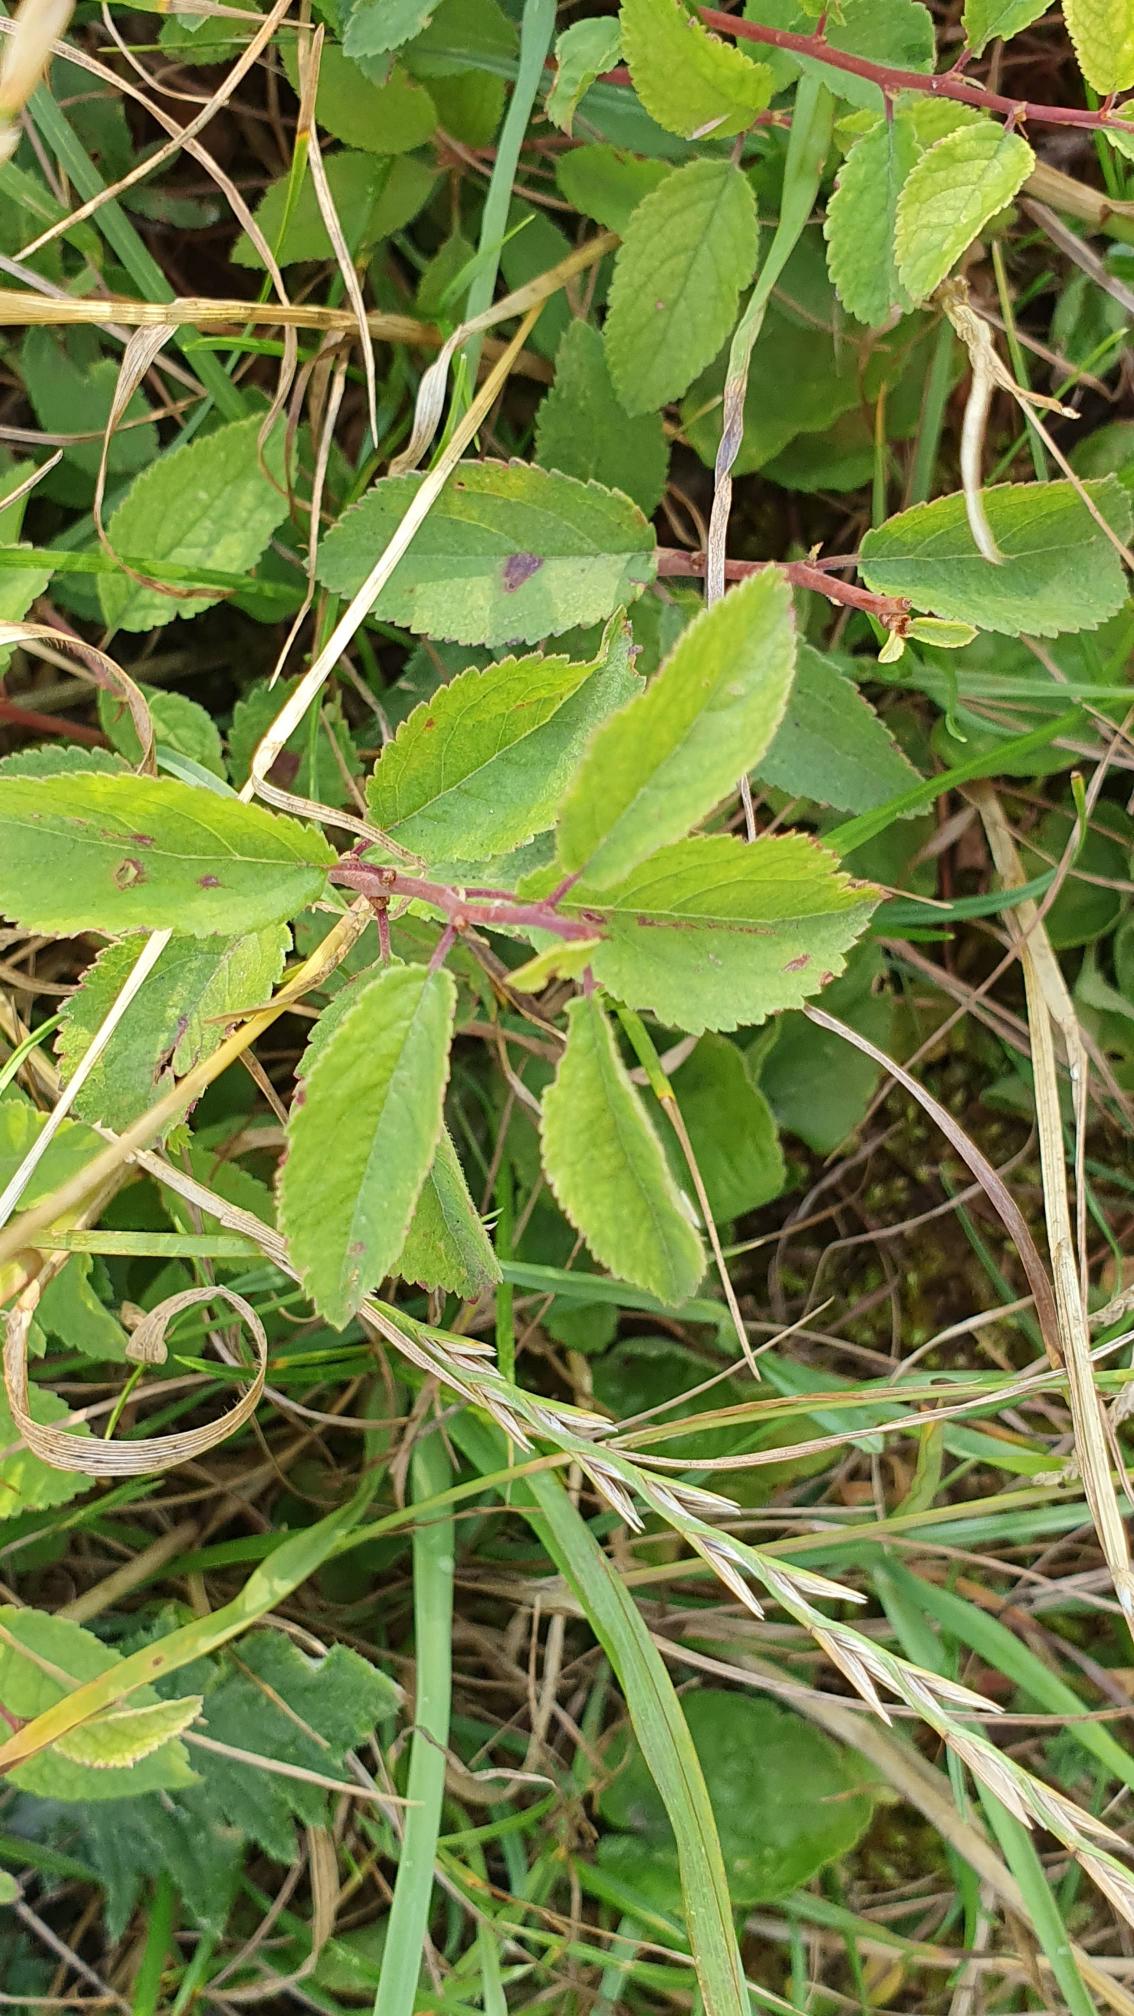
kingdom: Plantae
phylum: Tracheophyta
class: Magnoliopsida
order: Rosales
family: Rosaceae
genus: Prunus
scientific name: Prunus spinosa
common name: Slåen
